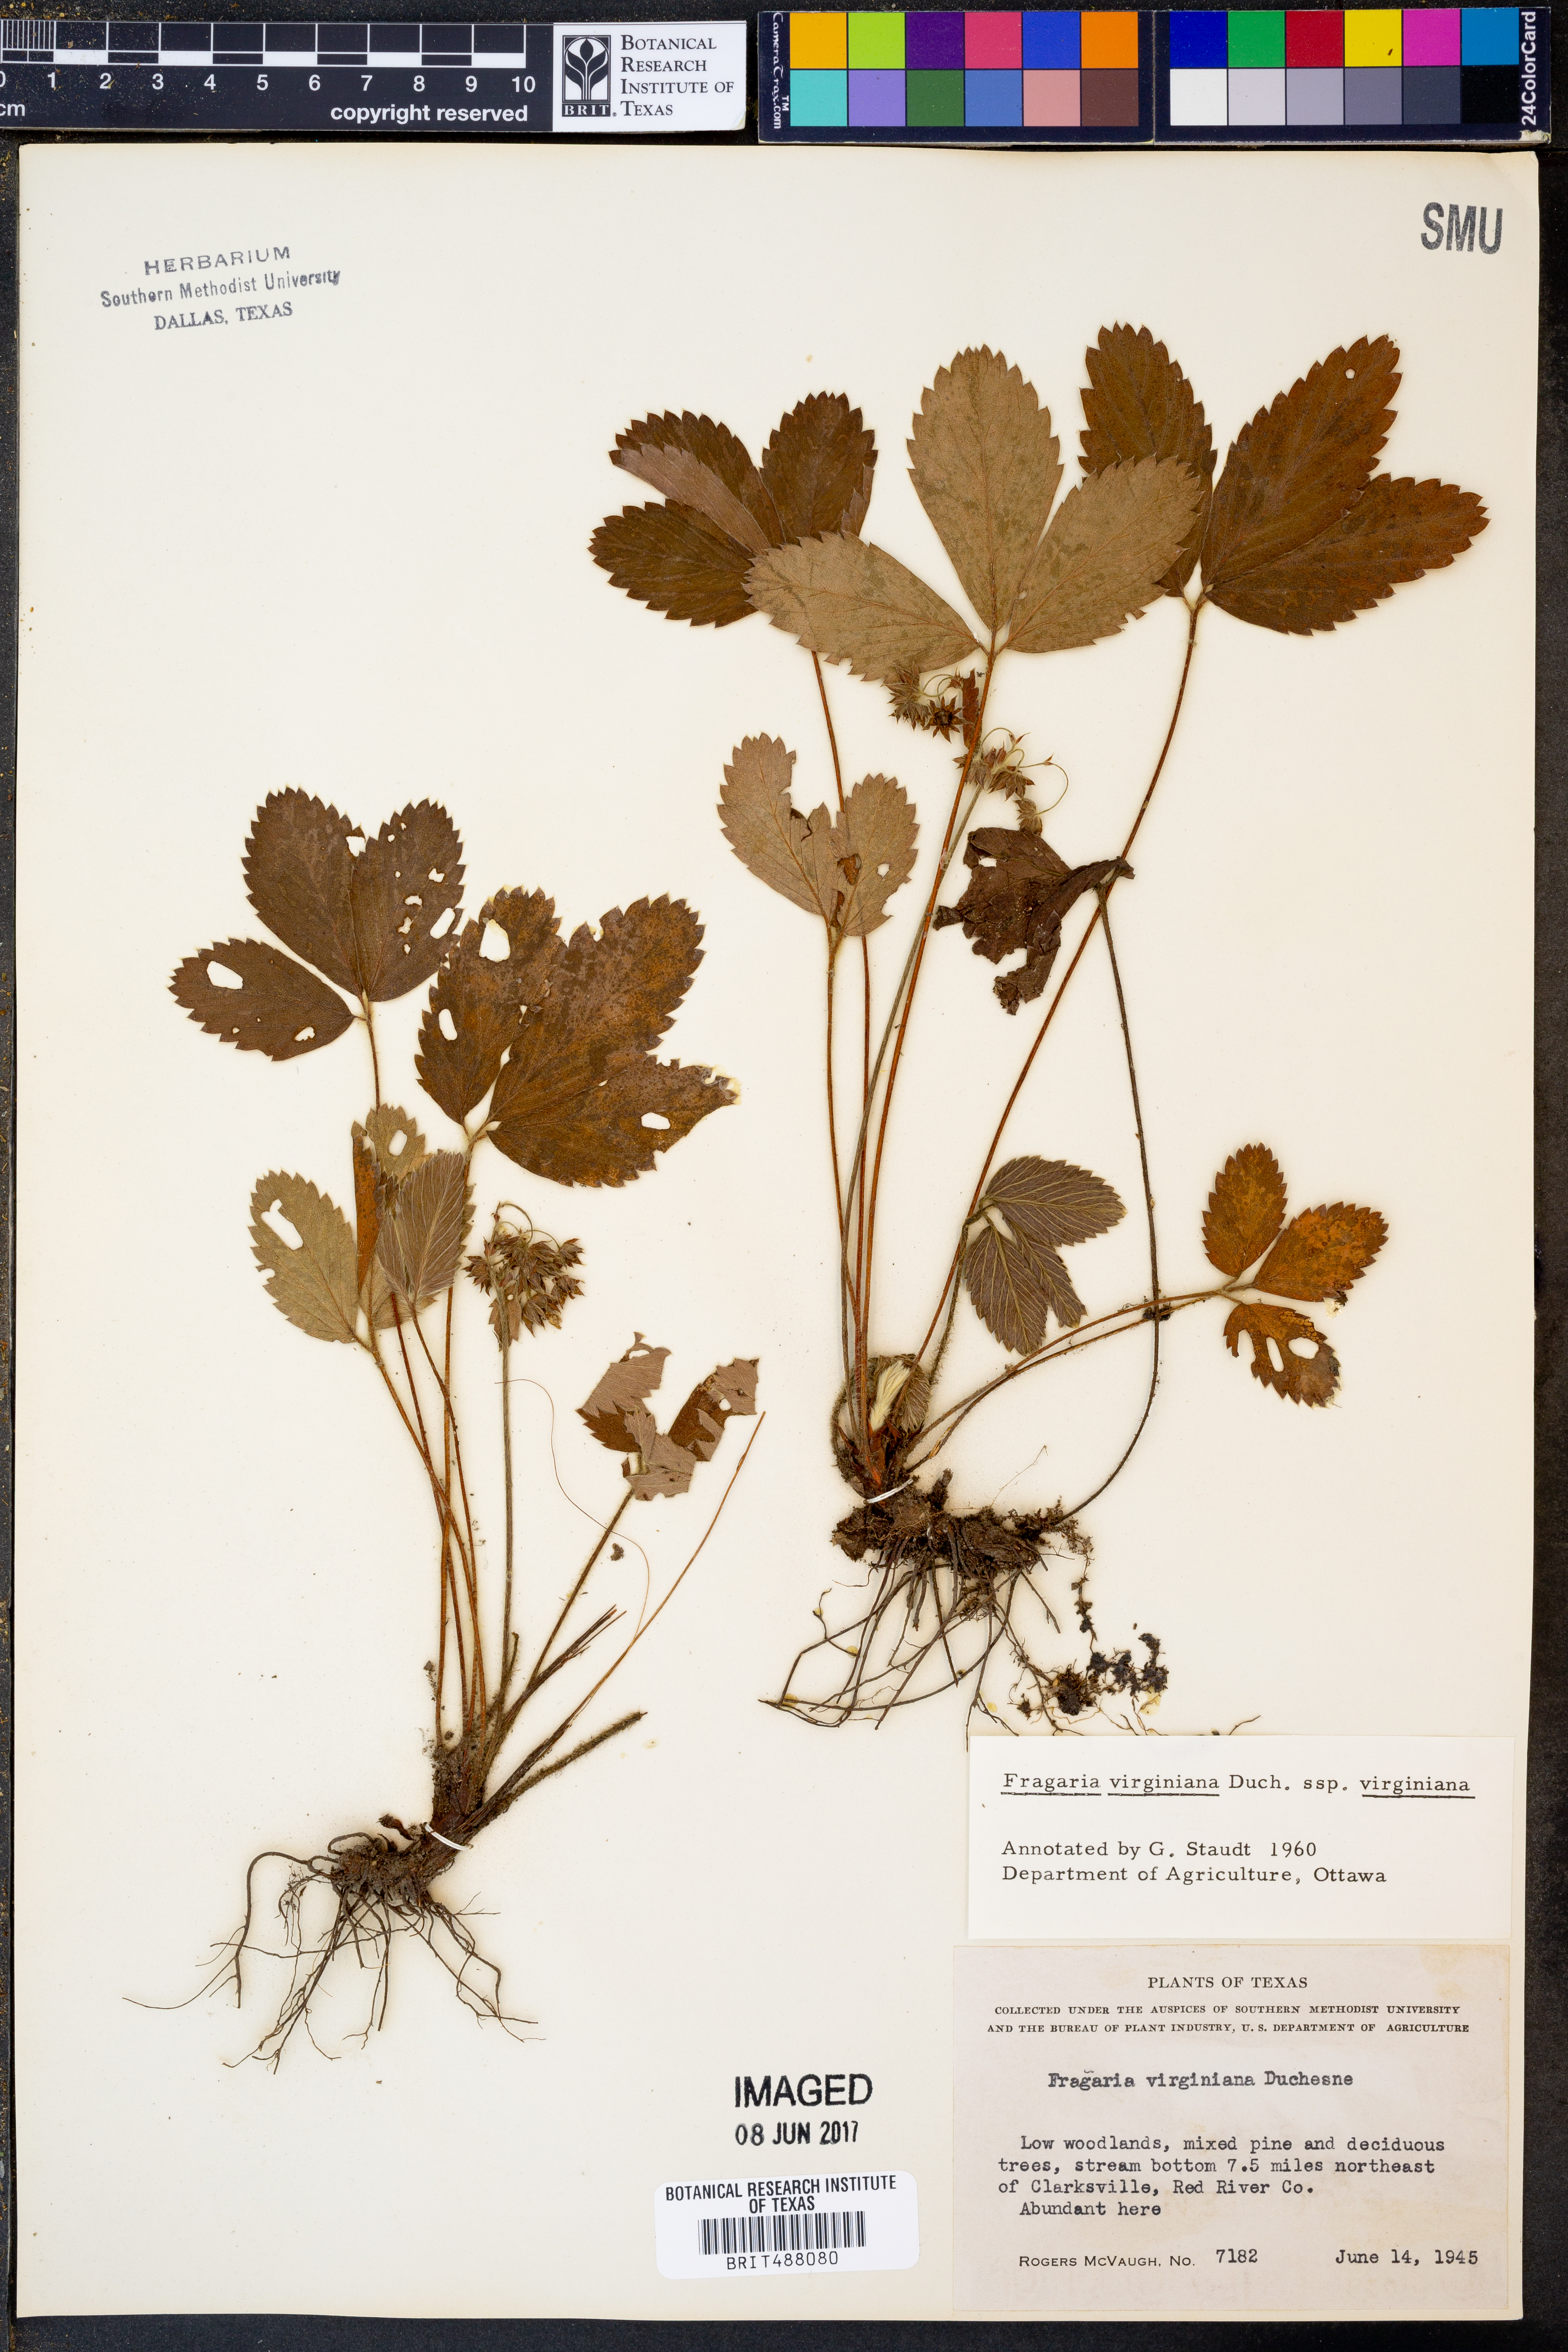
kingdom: Plantae
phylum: Tracheophyta
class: Magnoliopsida
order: Rosales
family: Rosaceae
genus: Fragaria
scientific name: Fragaria virginiana
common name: Thickleaved wild strawberry
